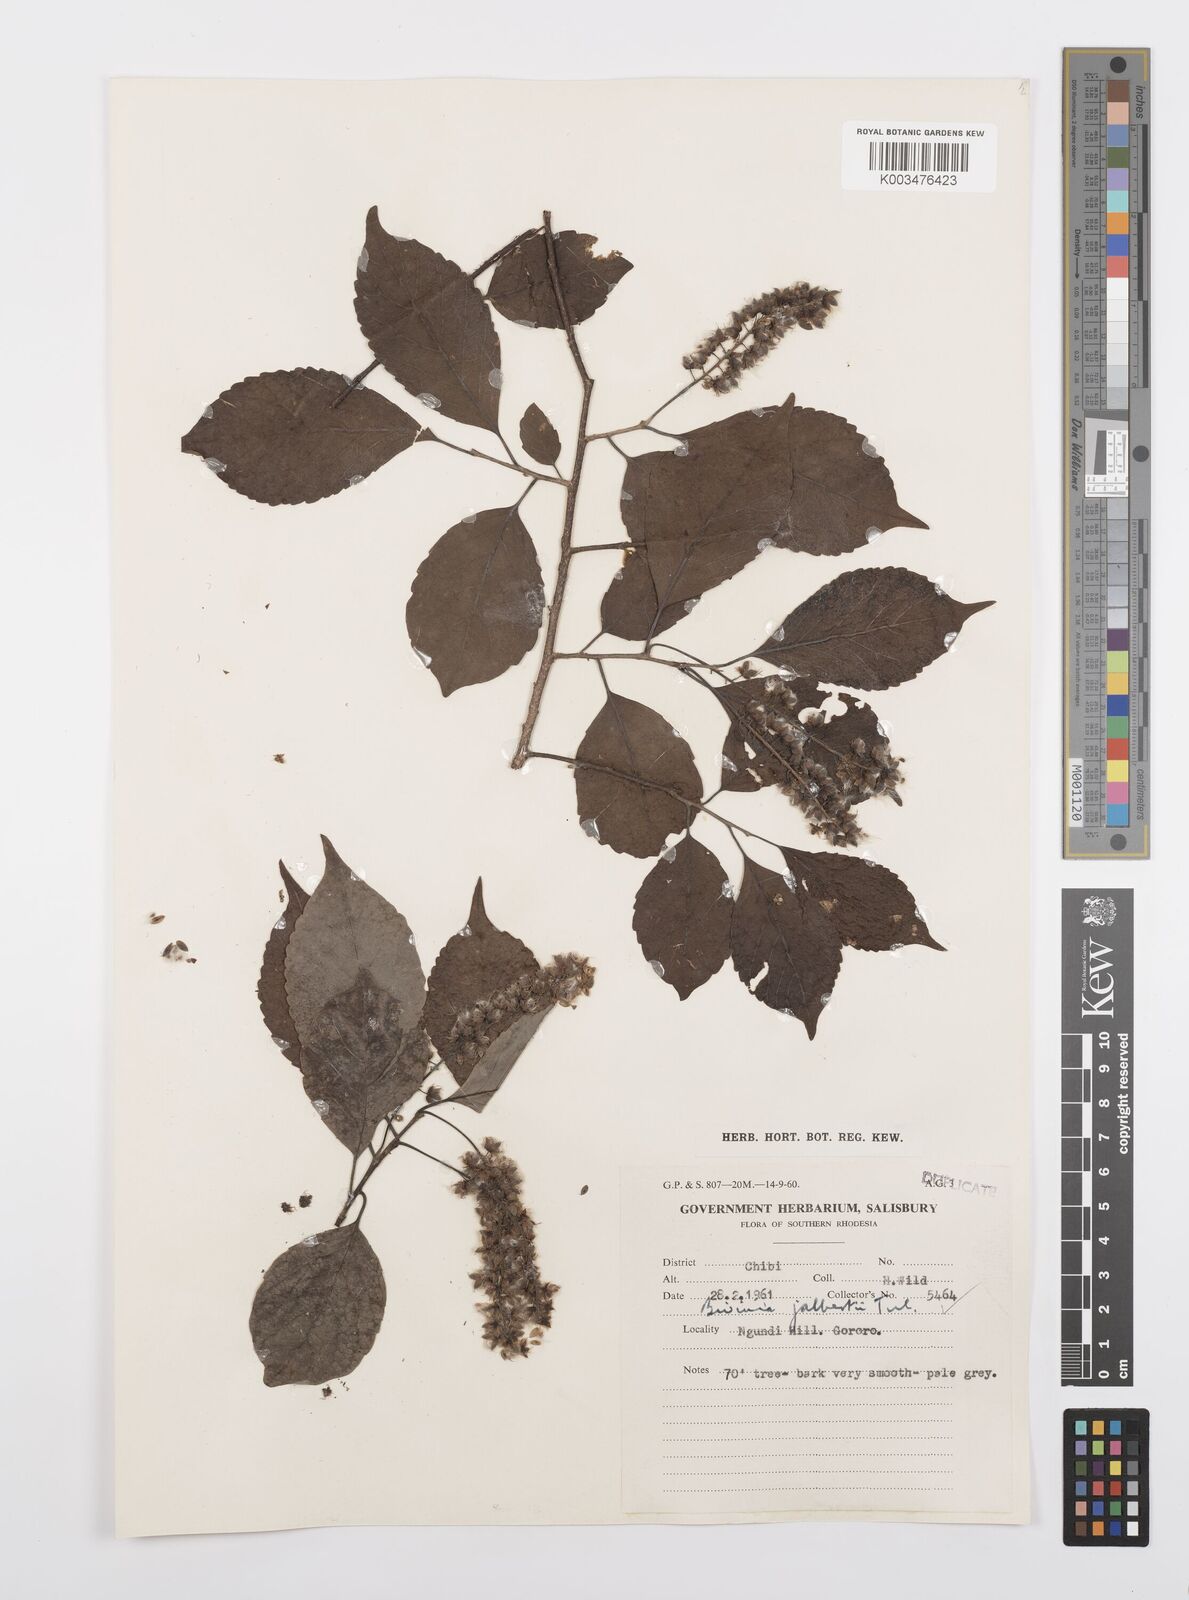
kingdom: Plantae
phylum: Tracheophyta
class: Magnoliopsida
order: Malpighiales
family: Salicaceae
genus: Bivinia
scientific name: Bivinia jalbertii
